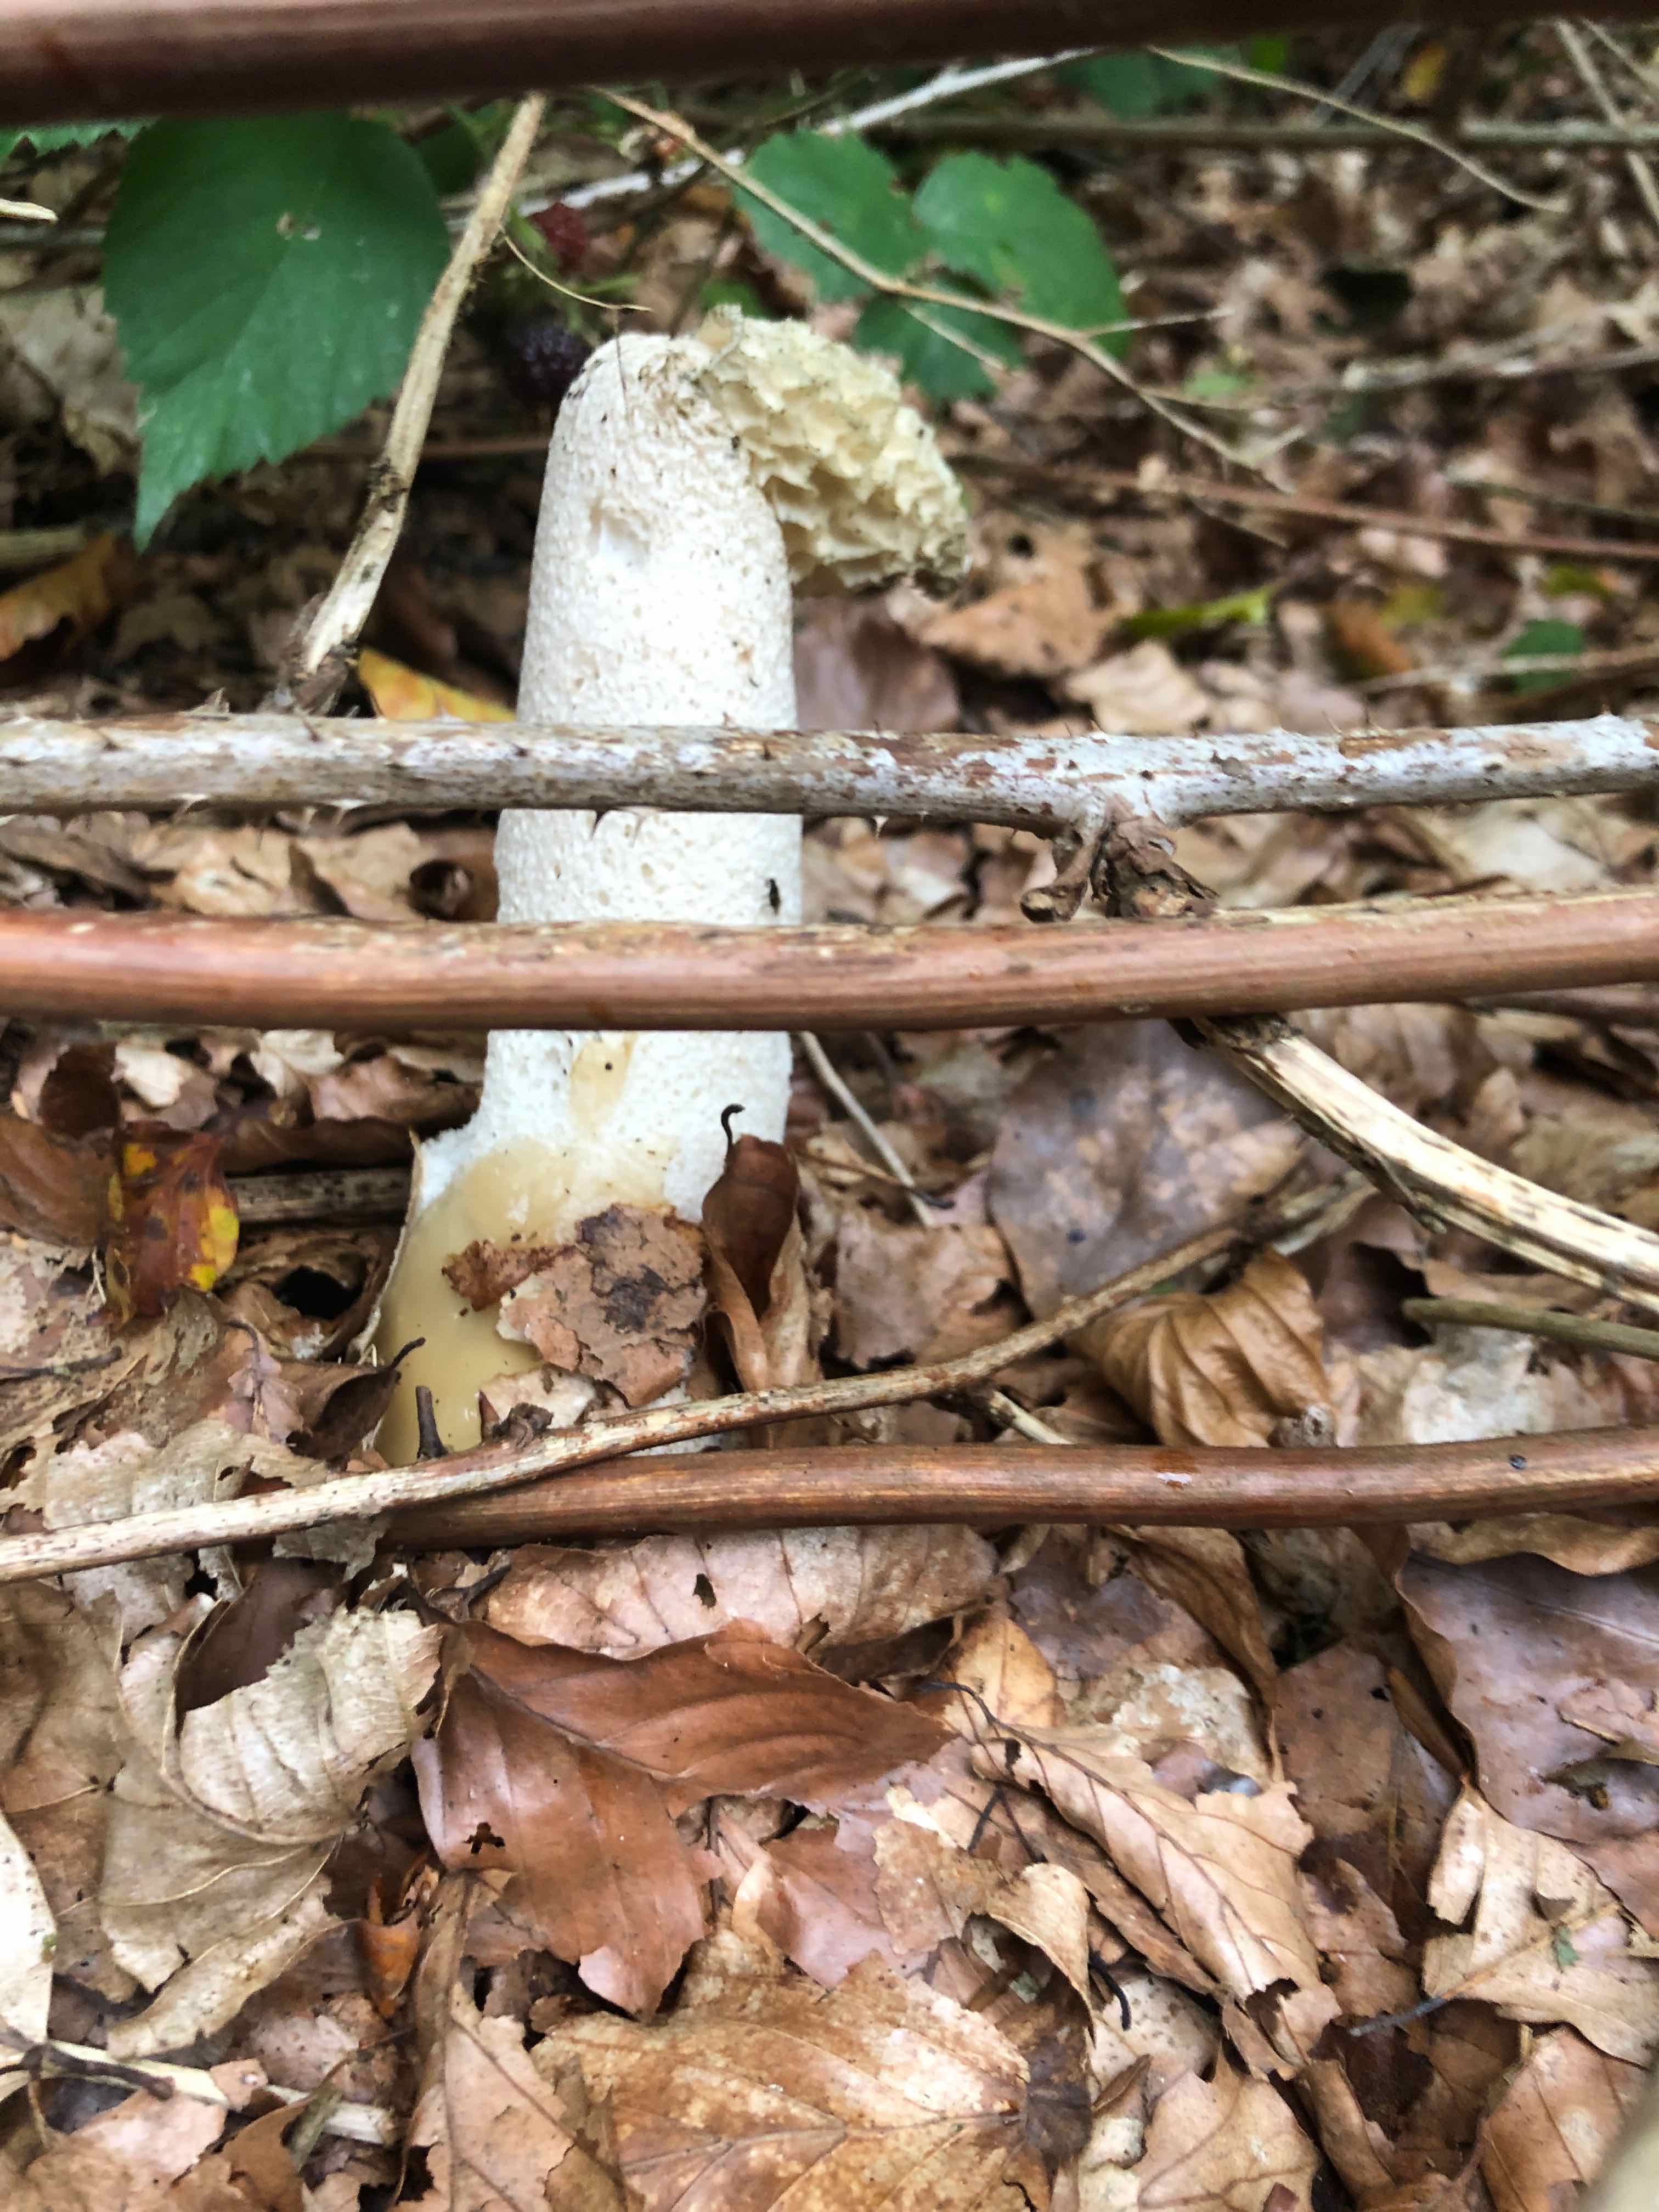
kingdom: Fungi
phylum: Basidiomycota
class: Agaricomycetes
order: Phallales
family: Phallaceae
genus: Phallus
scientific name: Phallus impudicus
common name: almindelig stinksvamp
